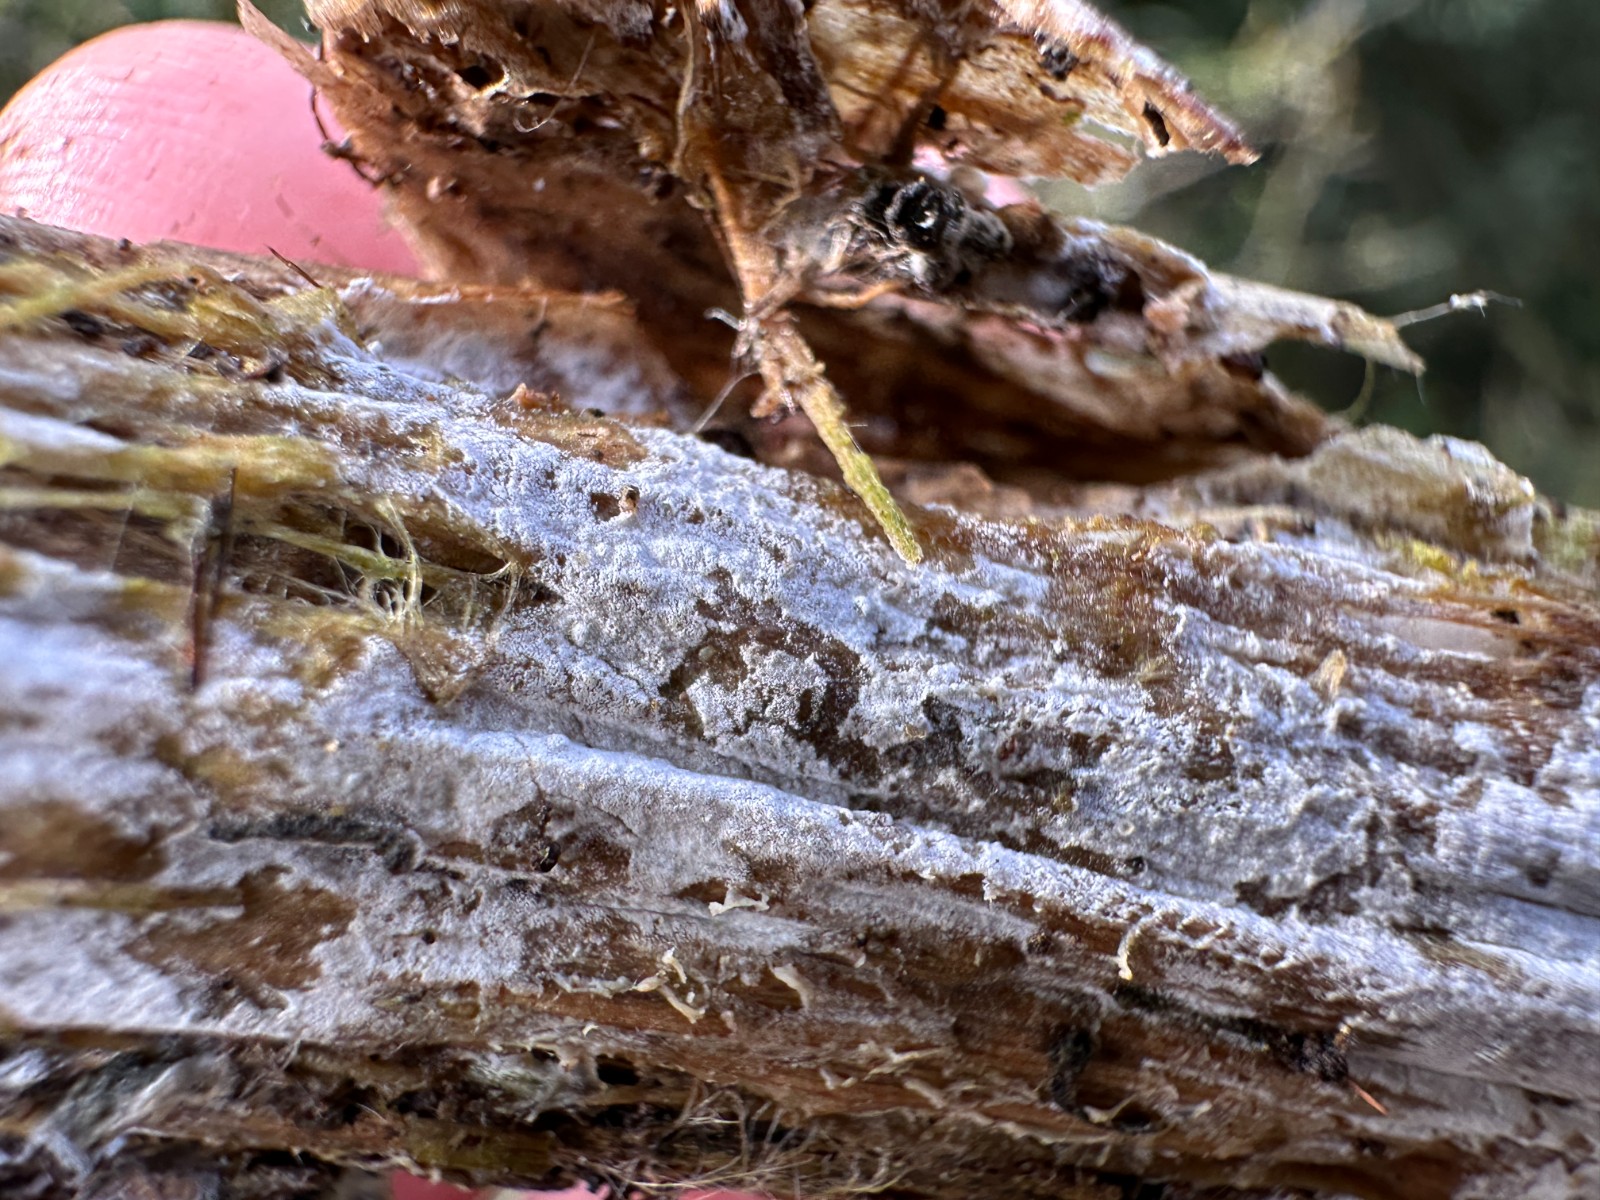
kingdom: Fungi
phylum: Basidiomycota
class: Agaricomycetes
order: Corticiales
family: Corticiaceae
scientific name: Corticiaceae
